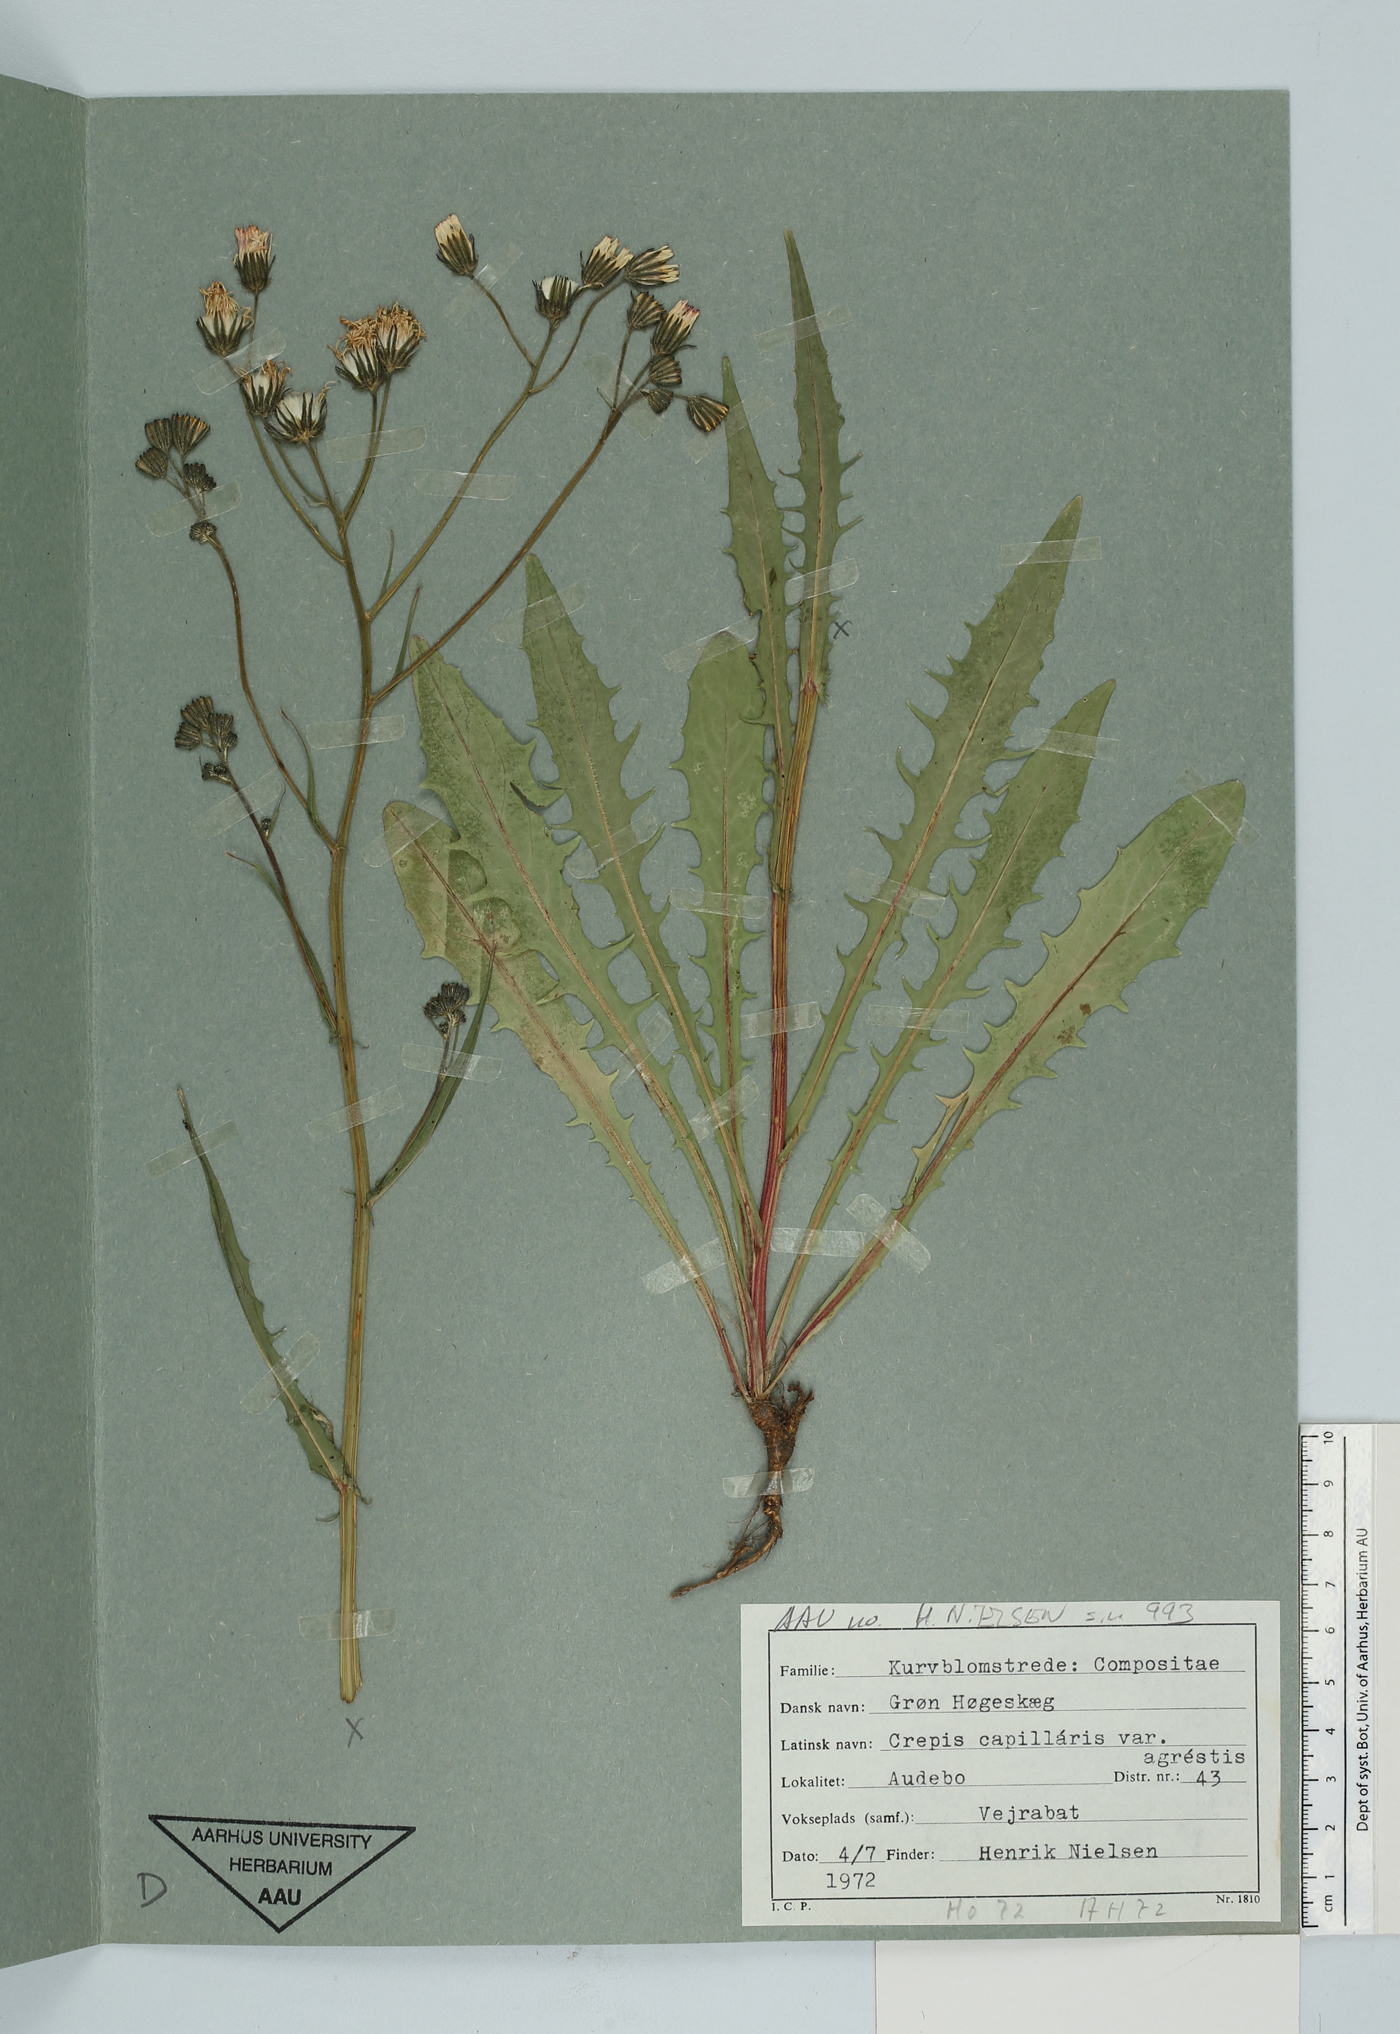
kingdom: Plantae
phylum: Tracheophyta
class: Magnoliopsida
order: Asterales
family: Asteraceae
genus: Crepis
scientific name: Crepis capillaris
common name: Smooth hawksbeard
